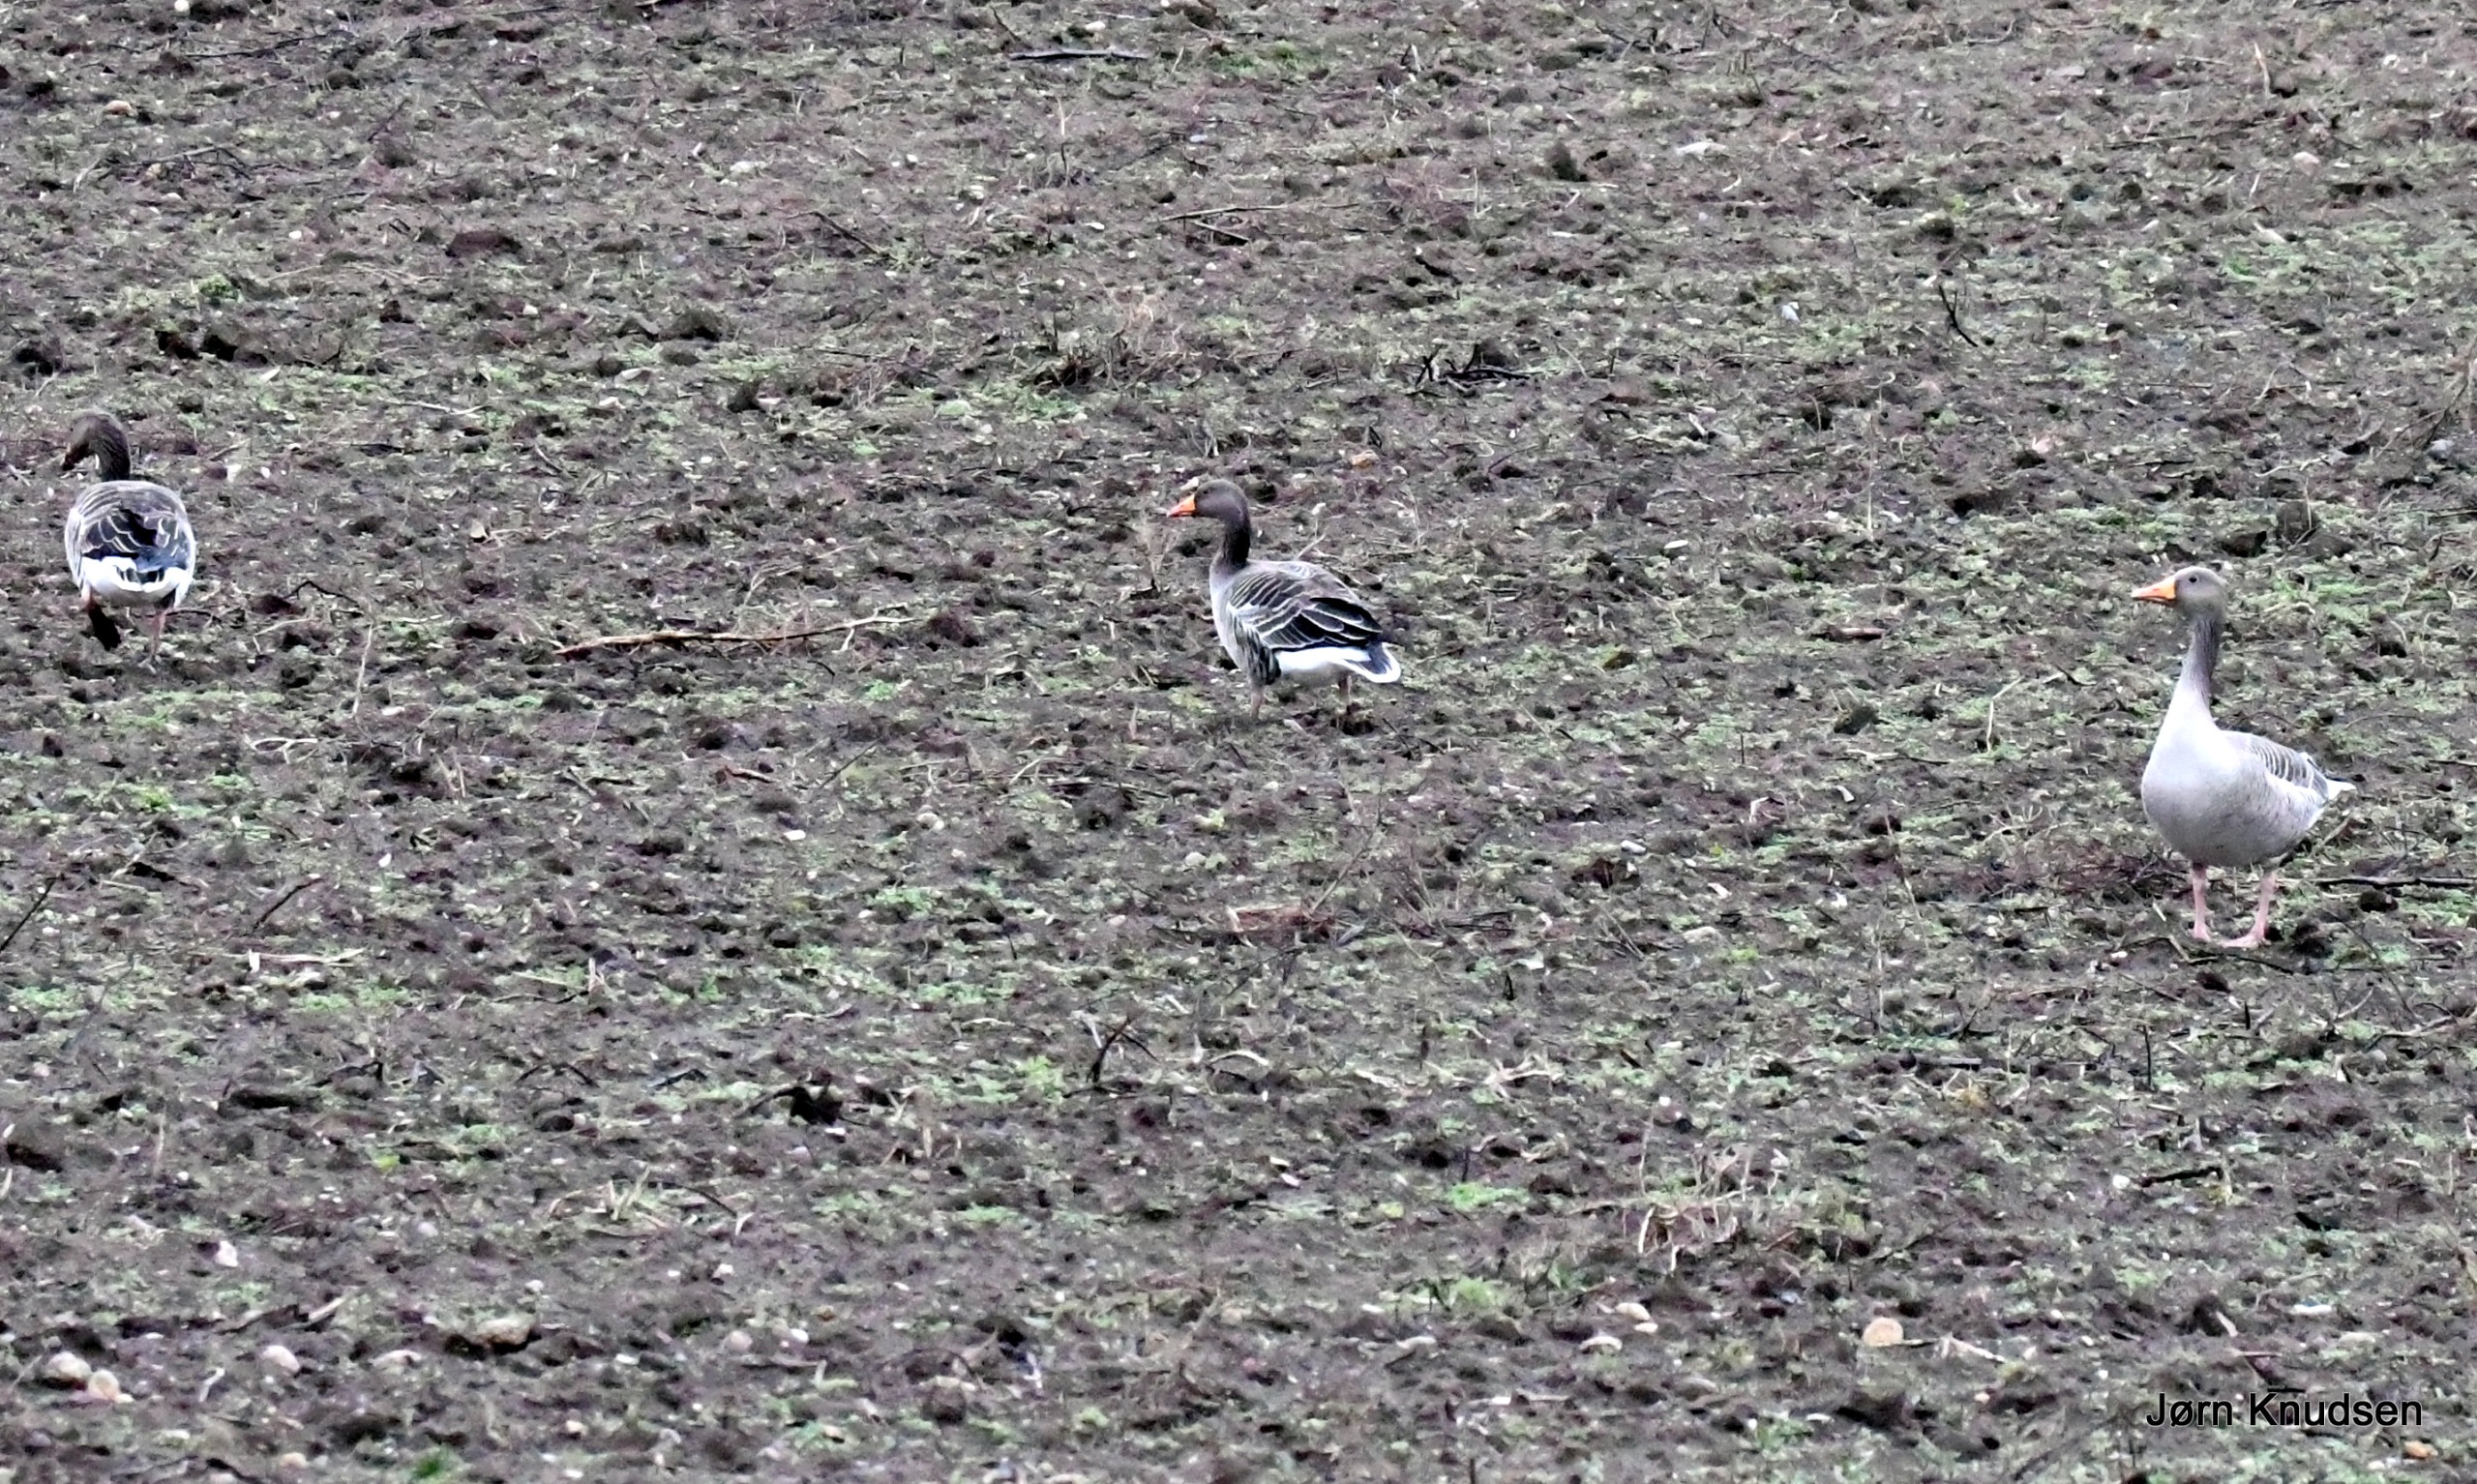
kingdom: Animalia
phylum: Chordata
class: Aves
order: Anseriformes
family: Anatidae
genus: Anser
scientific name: Anser anser
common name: Grågås
